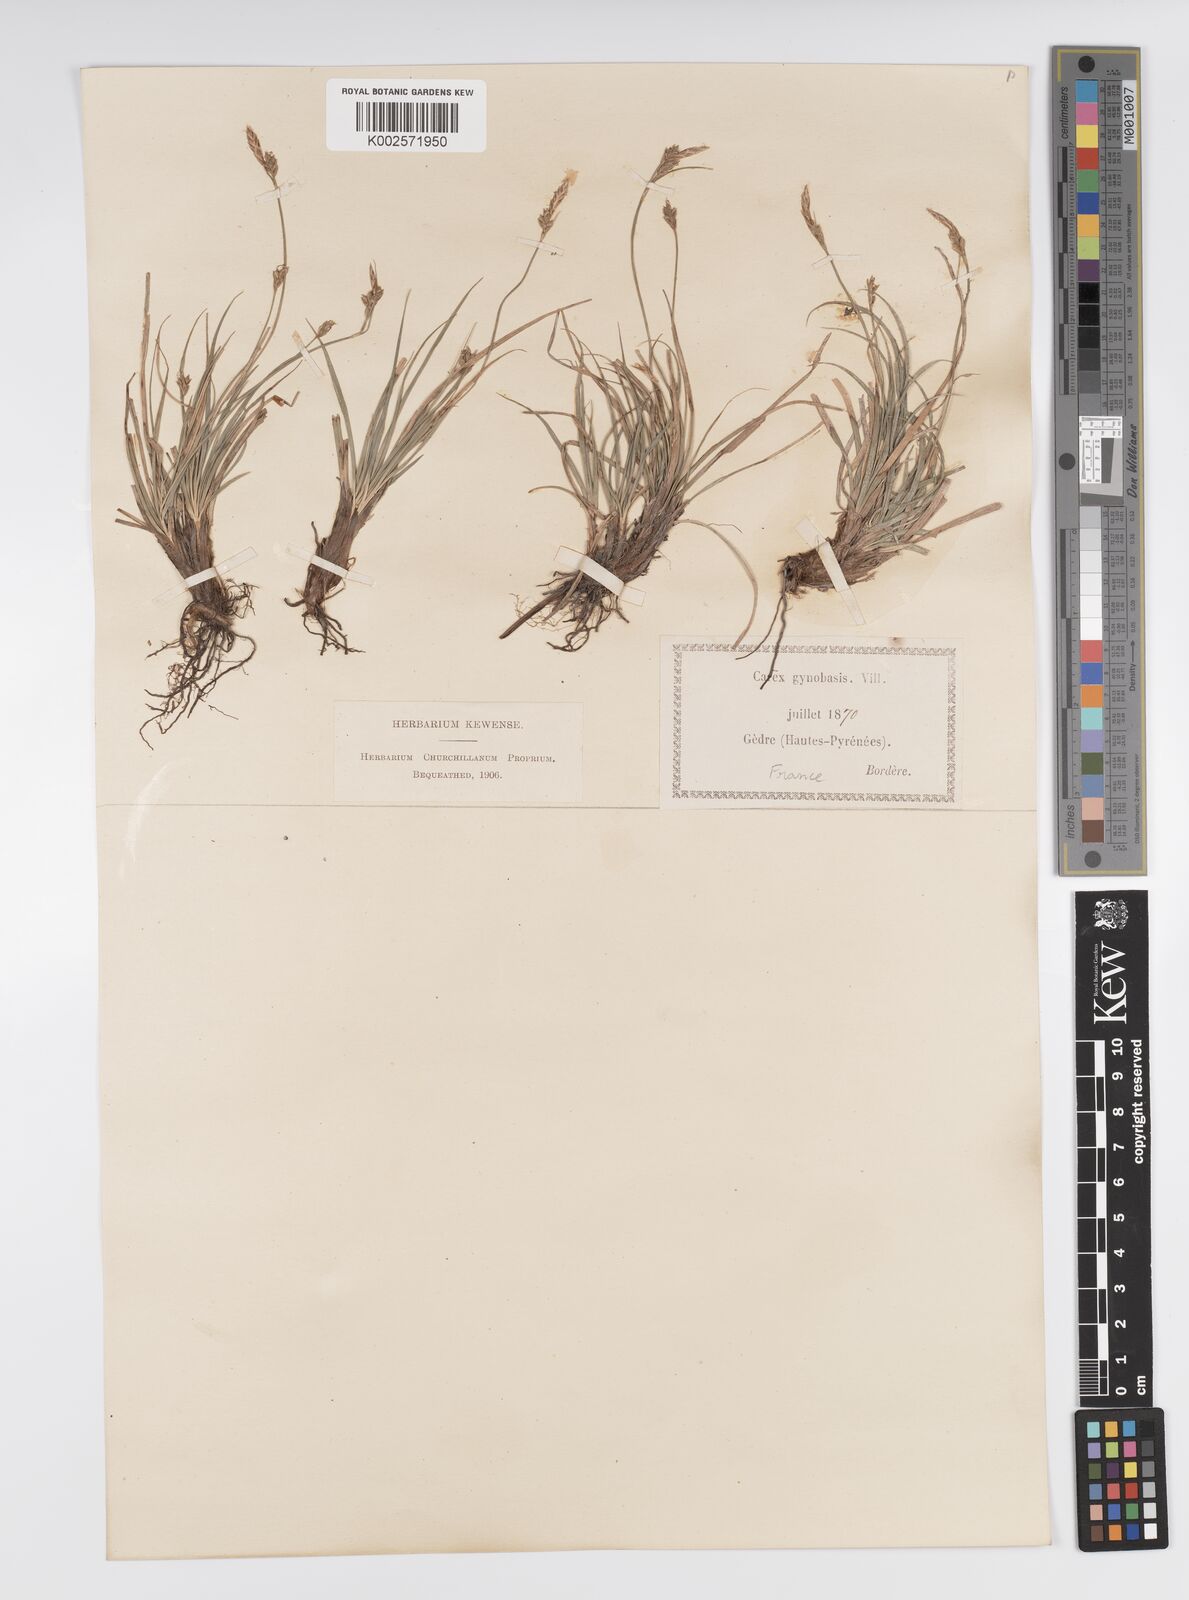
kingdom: Plantae
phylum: Tracheophyta
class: Liliopsida
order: Poales
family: Cyperaceae
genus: Carex
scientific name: Carex halleriana
